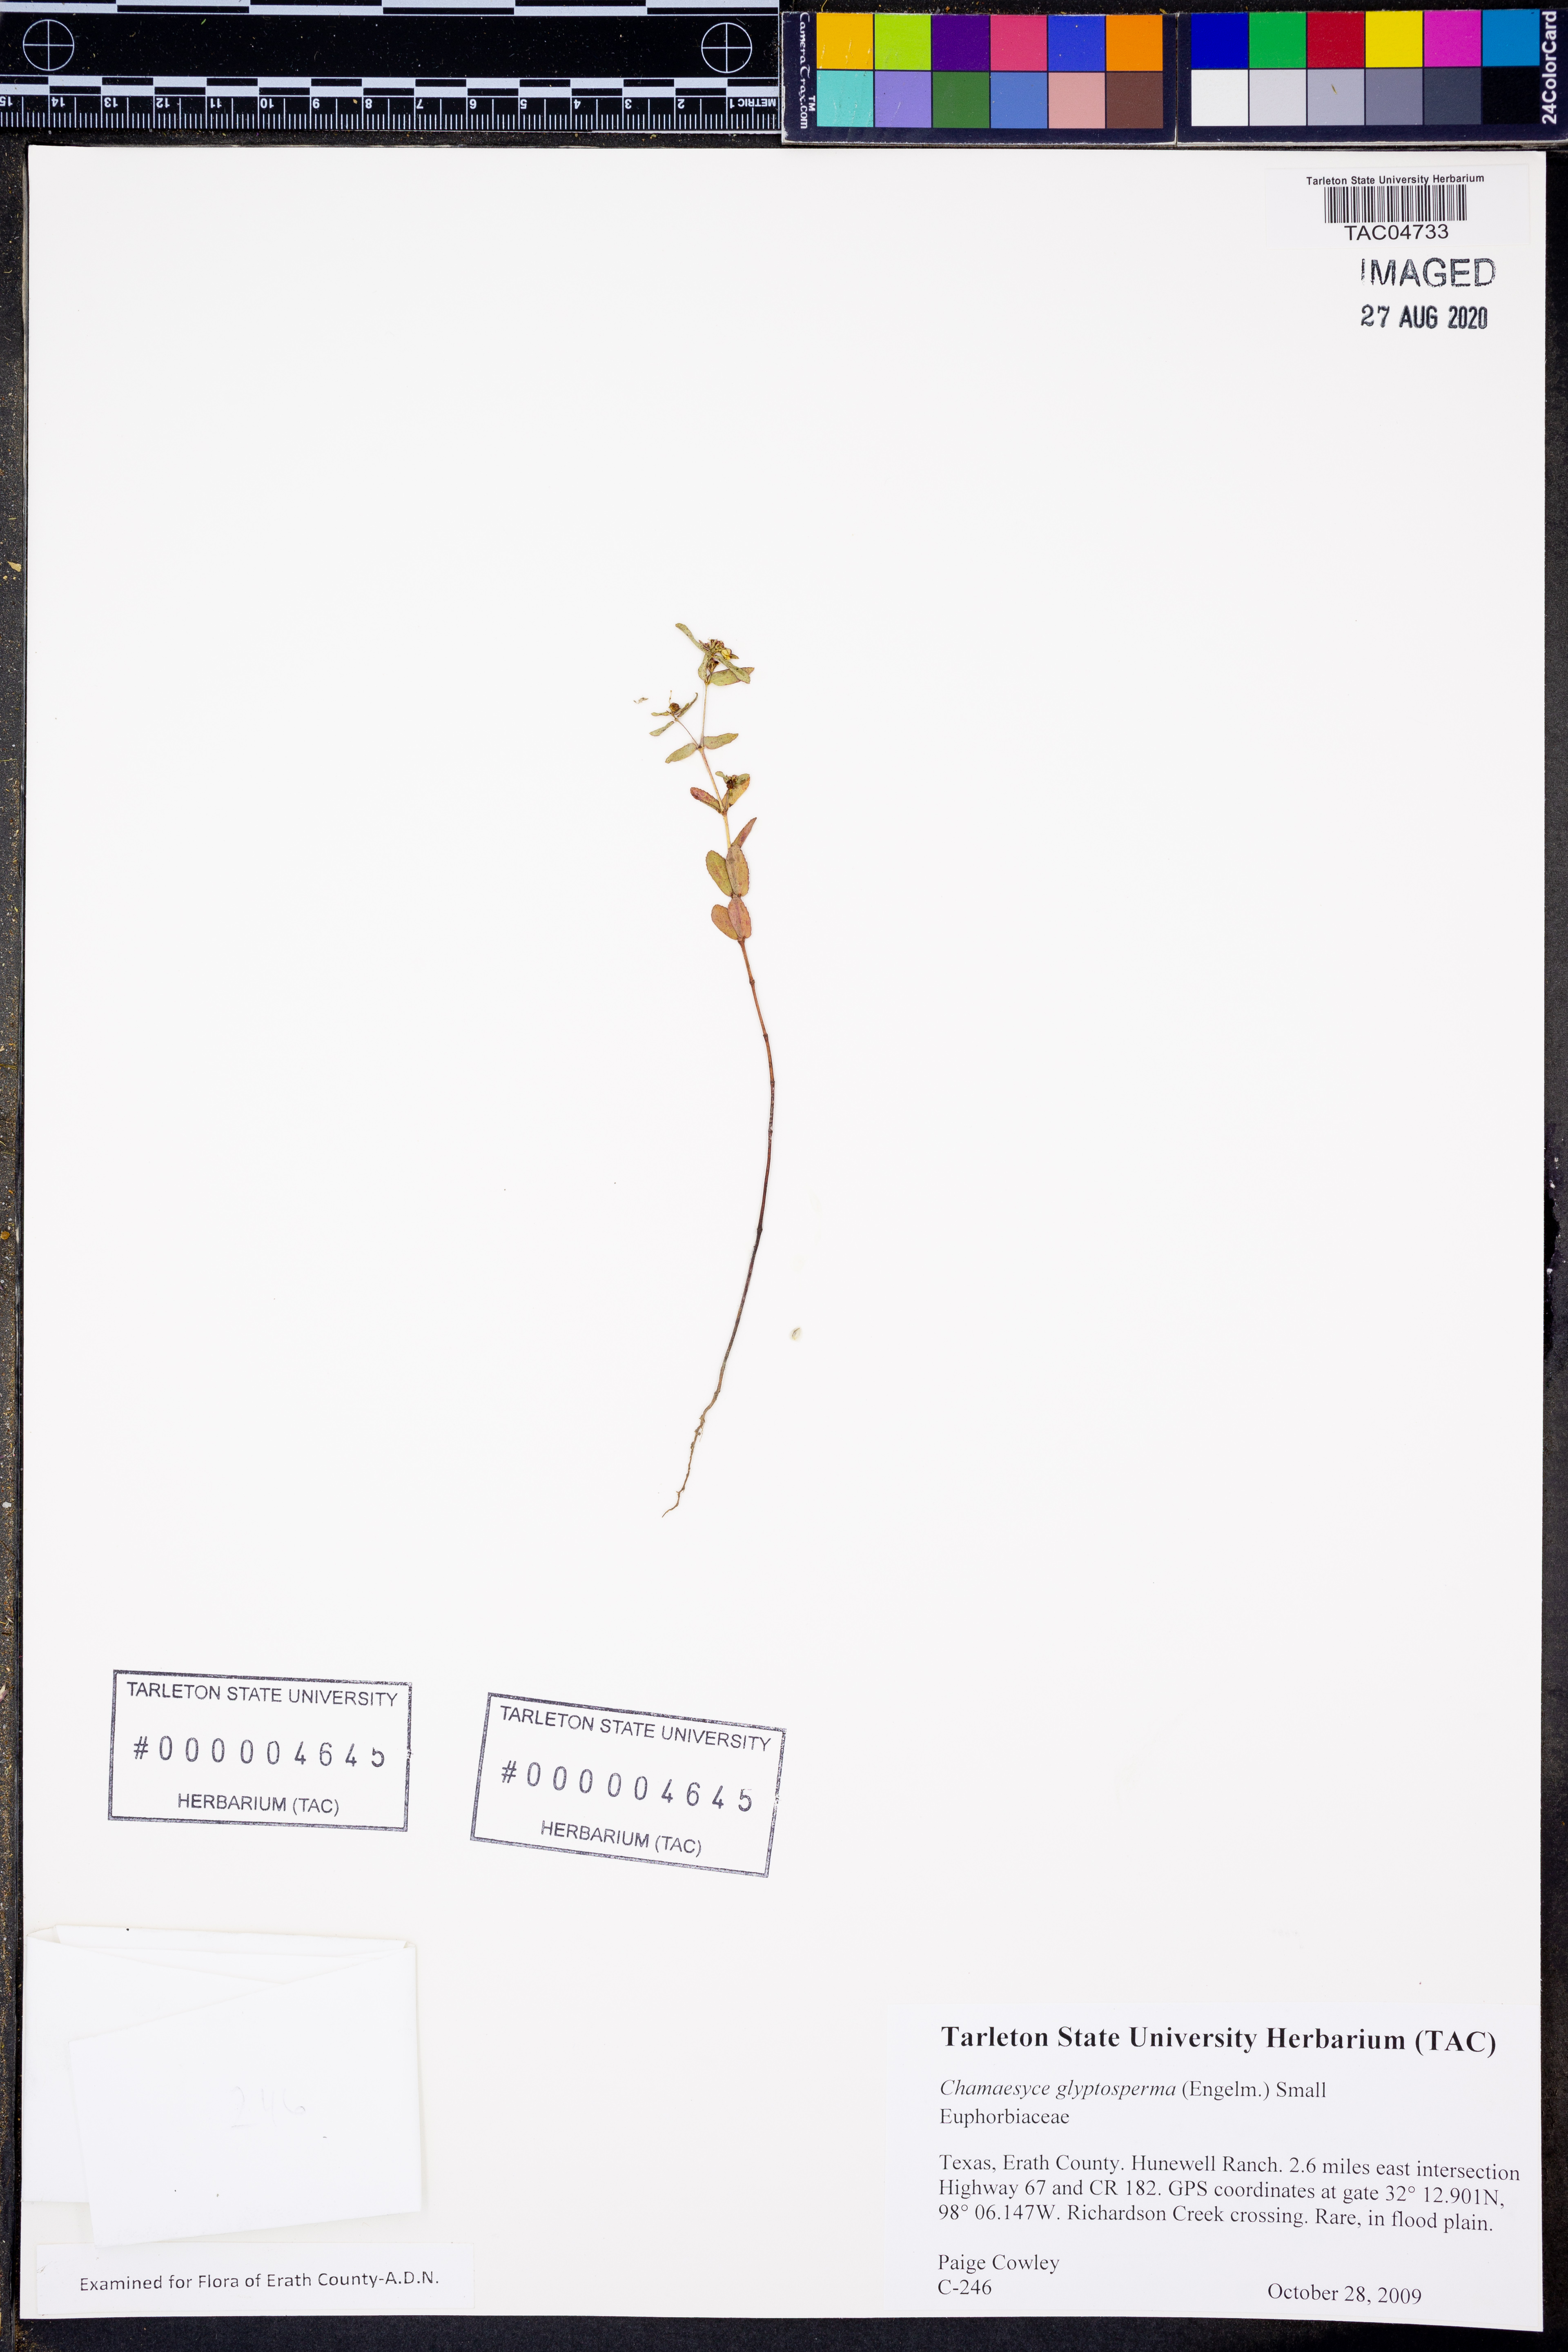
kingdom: Plantae
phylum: Tracheophyta
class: Magnoliopsida
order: Malpighiales
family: Euphorbiaceae
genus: Euphorbia
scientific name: Euphorbia glyptosperma
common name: Corrugate-seeded spurge
